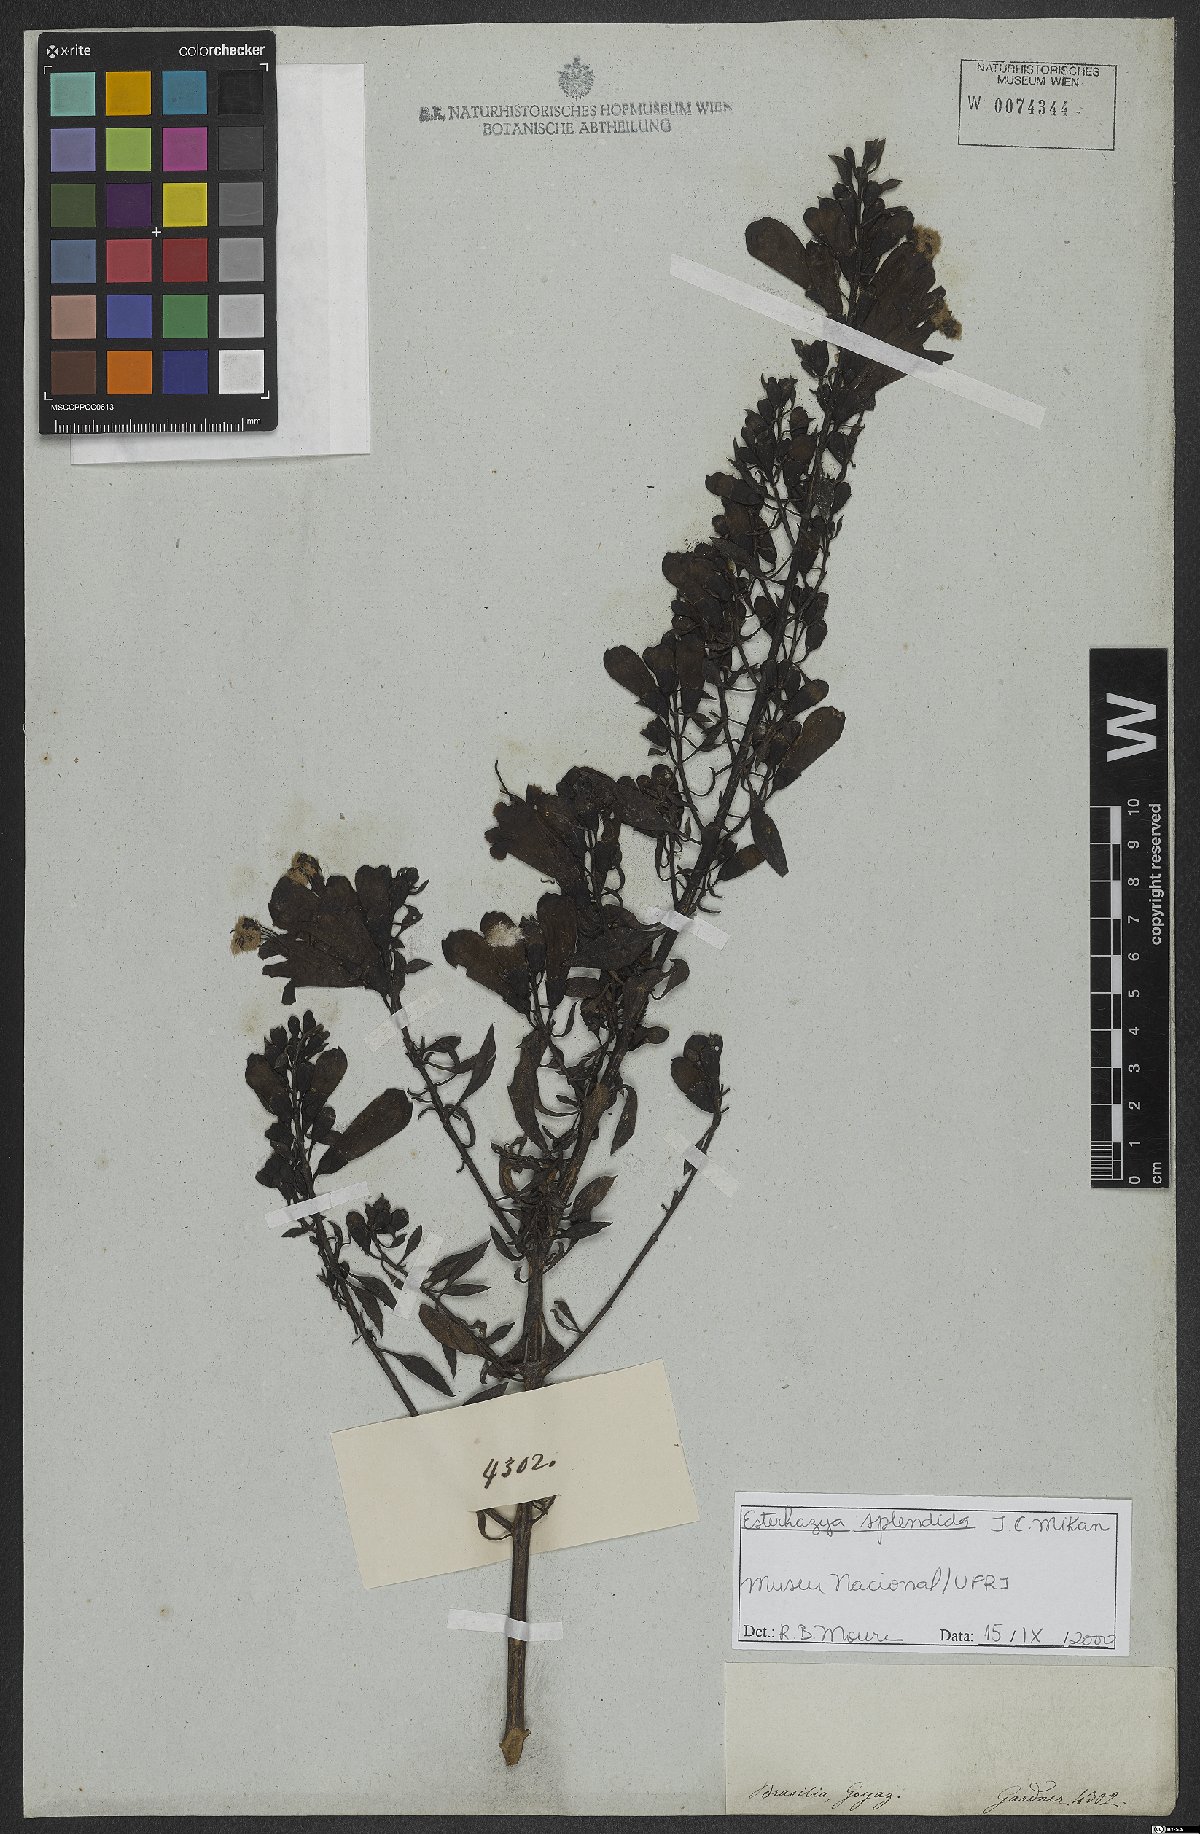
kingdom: Plantae
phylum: Tracheophyta
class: Magnoliopsida
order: Lamiales
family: Orobanchaceae
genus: Esterhazya
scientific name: Esterhazya splendida
